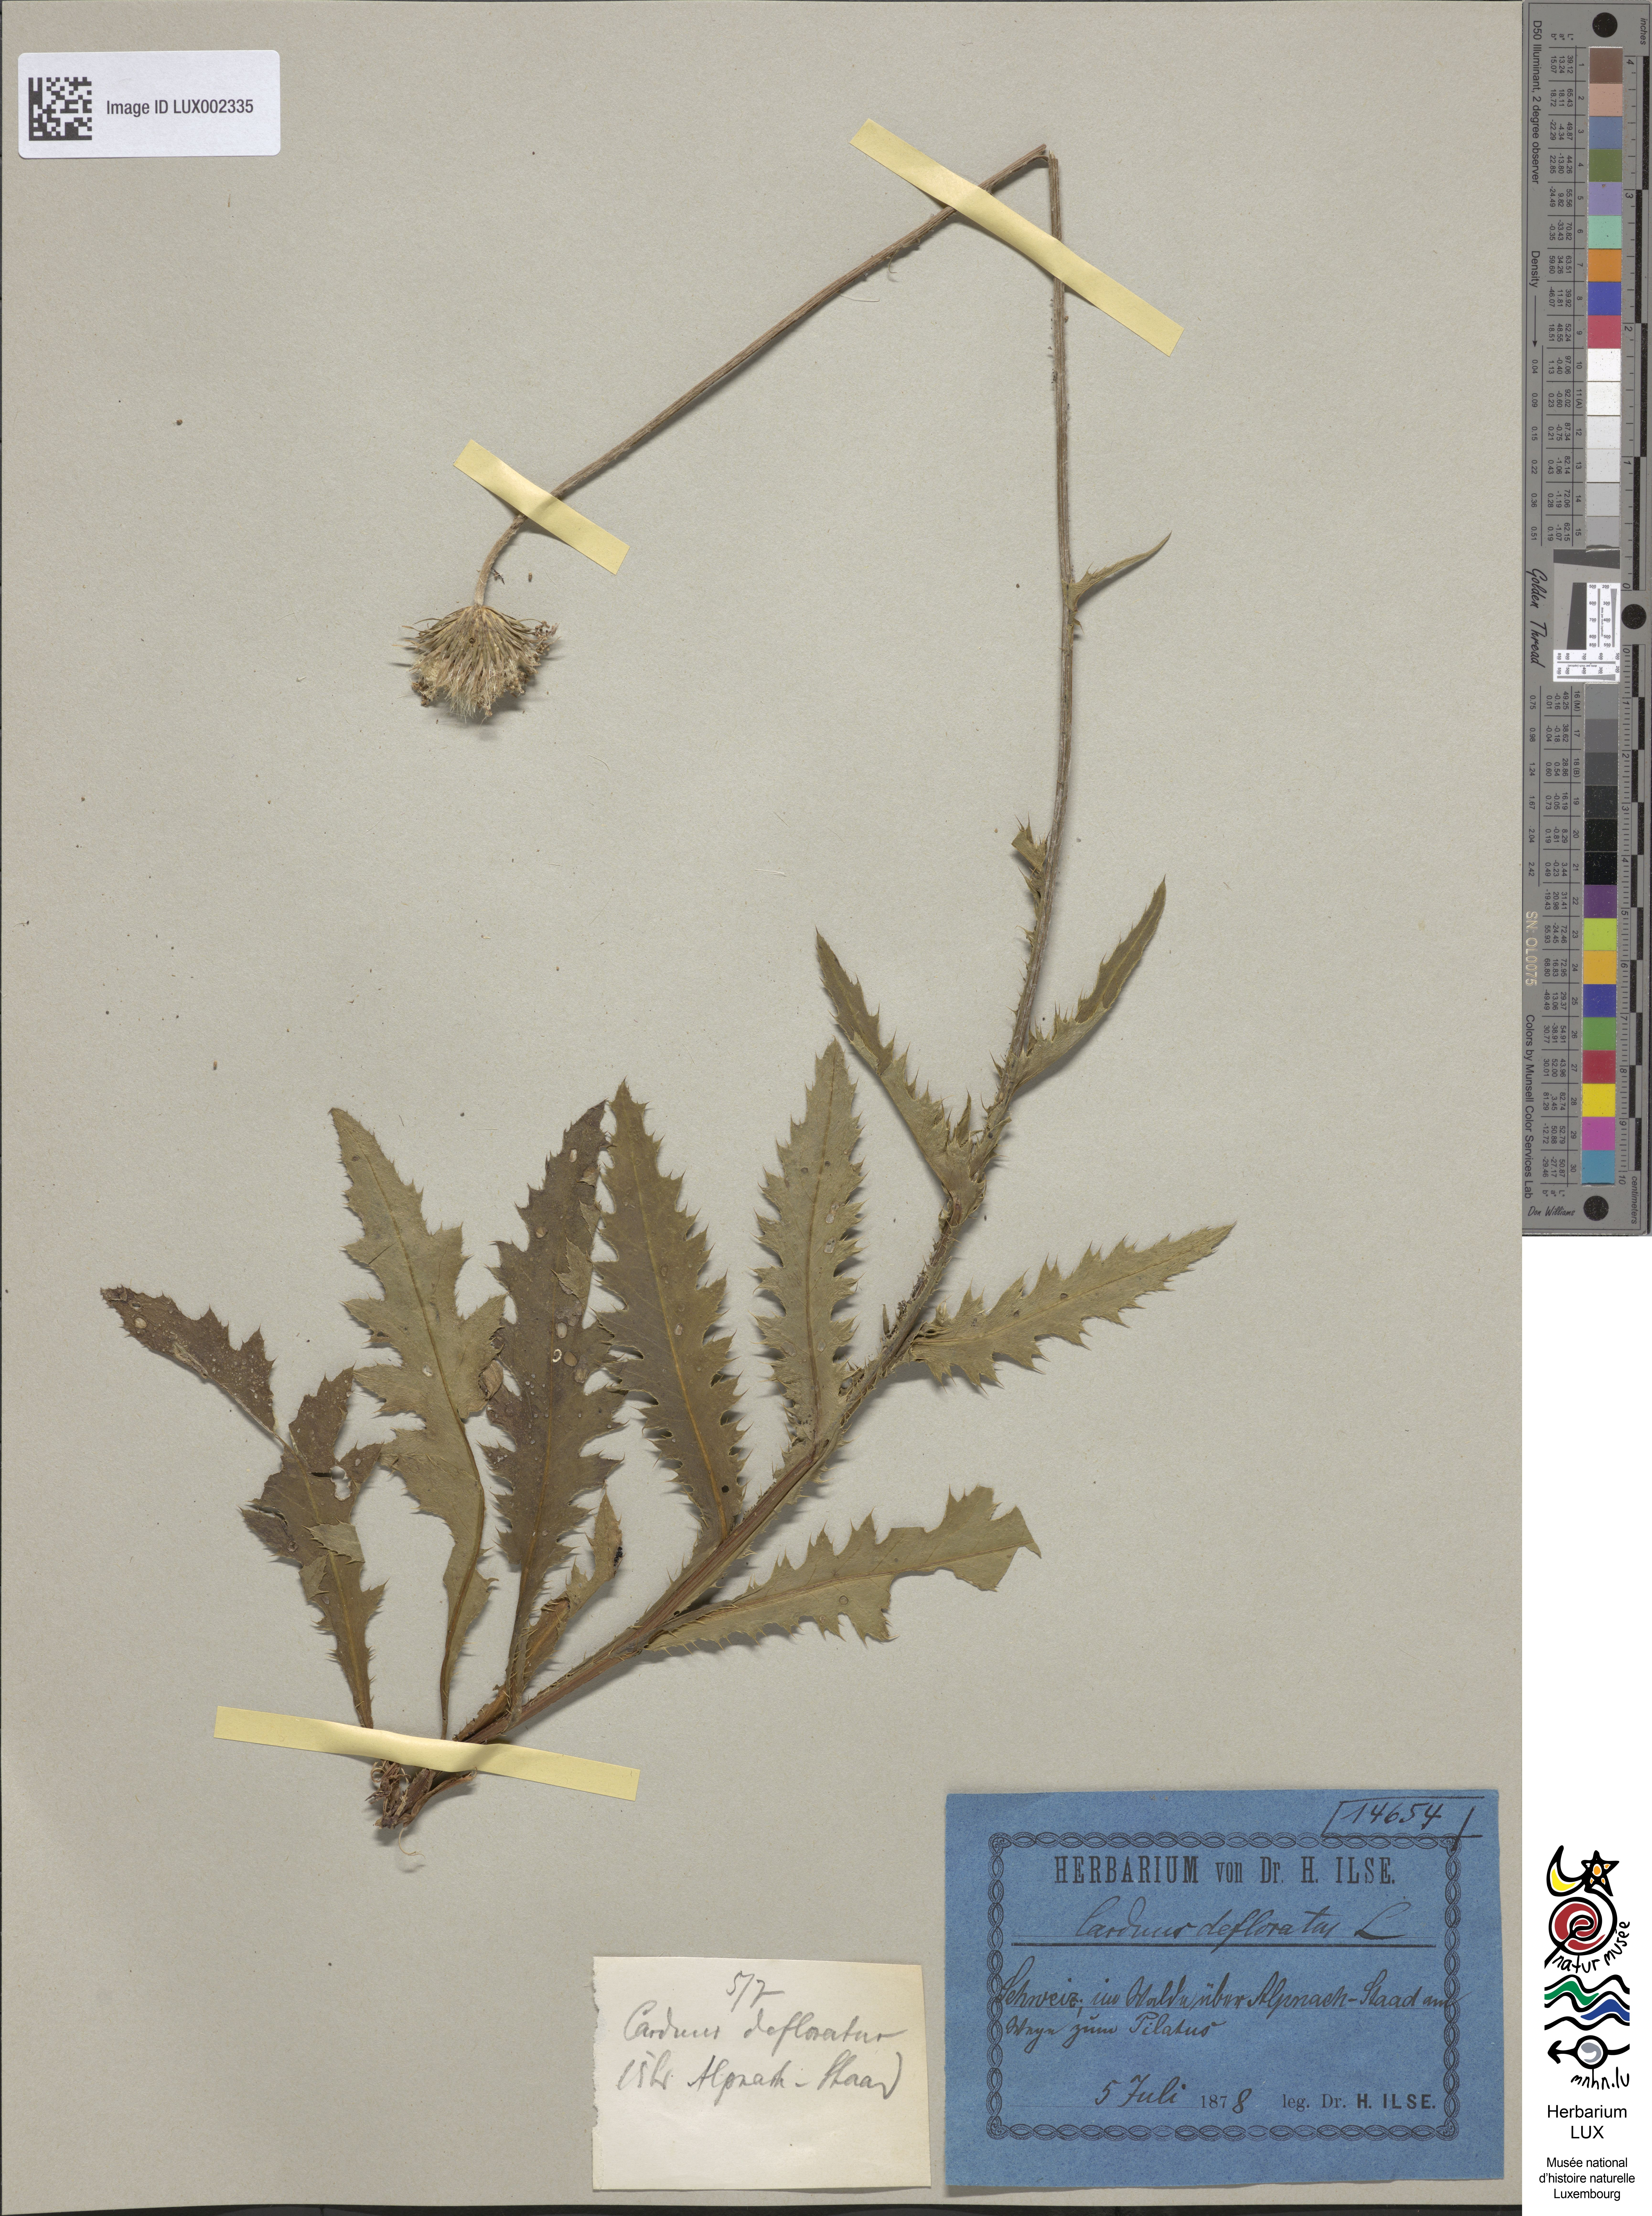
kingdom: Plantae
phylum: Tracheophyta
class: Magnoliopsida
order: Asterales
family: Asteraceae
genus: Carduus
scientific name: Carduus defloratus
